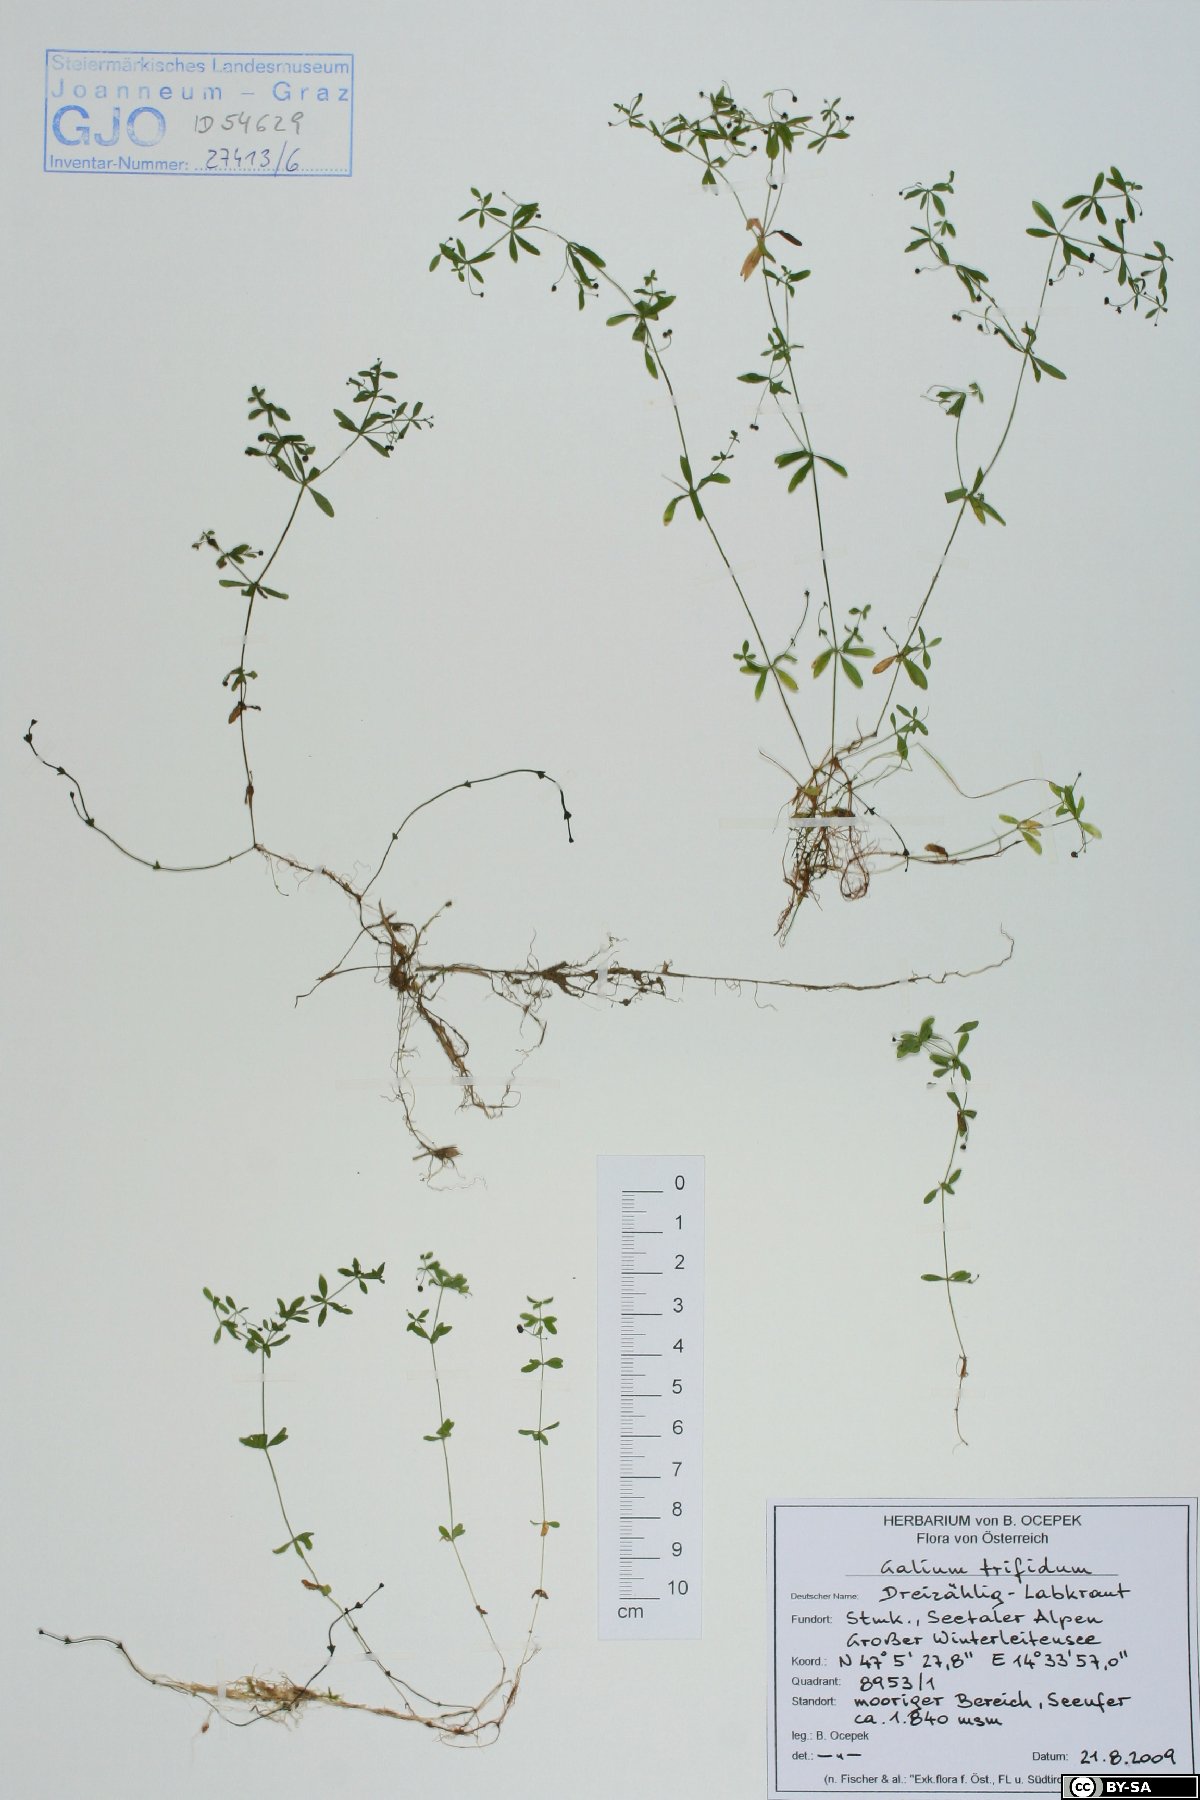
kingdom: Plantae
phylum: Tracheophyta
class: Magnoliopsida
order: Gentianales
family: Rubiaceae
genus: Galium
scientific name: Galium trifidum
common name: Small bedstraw
